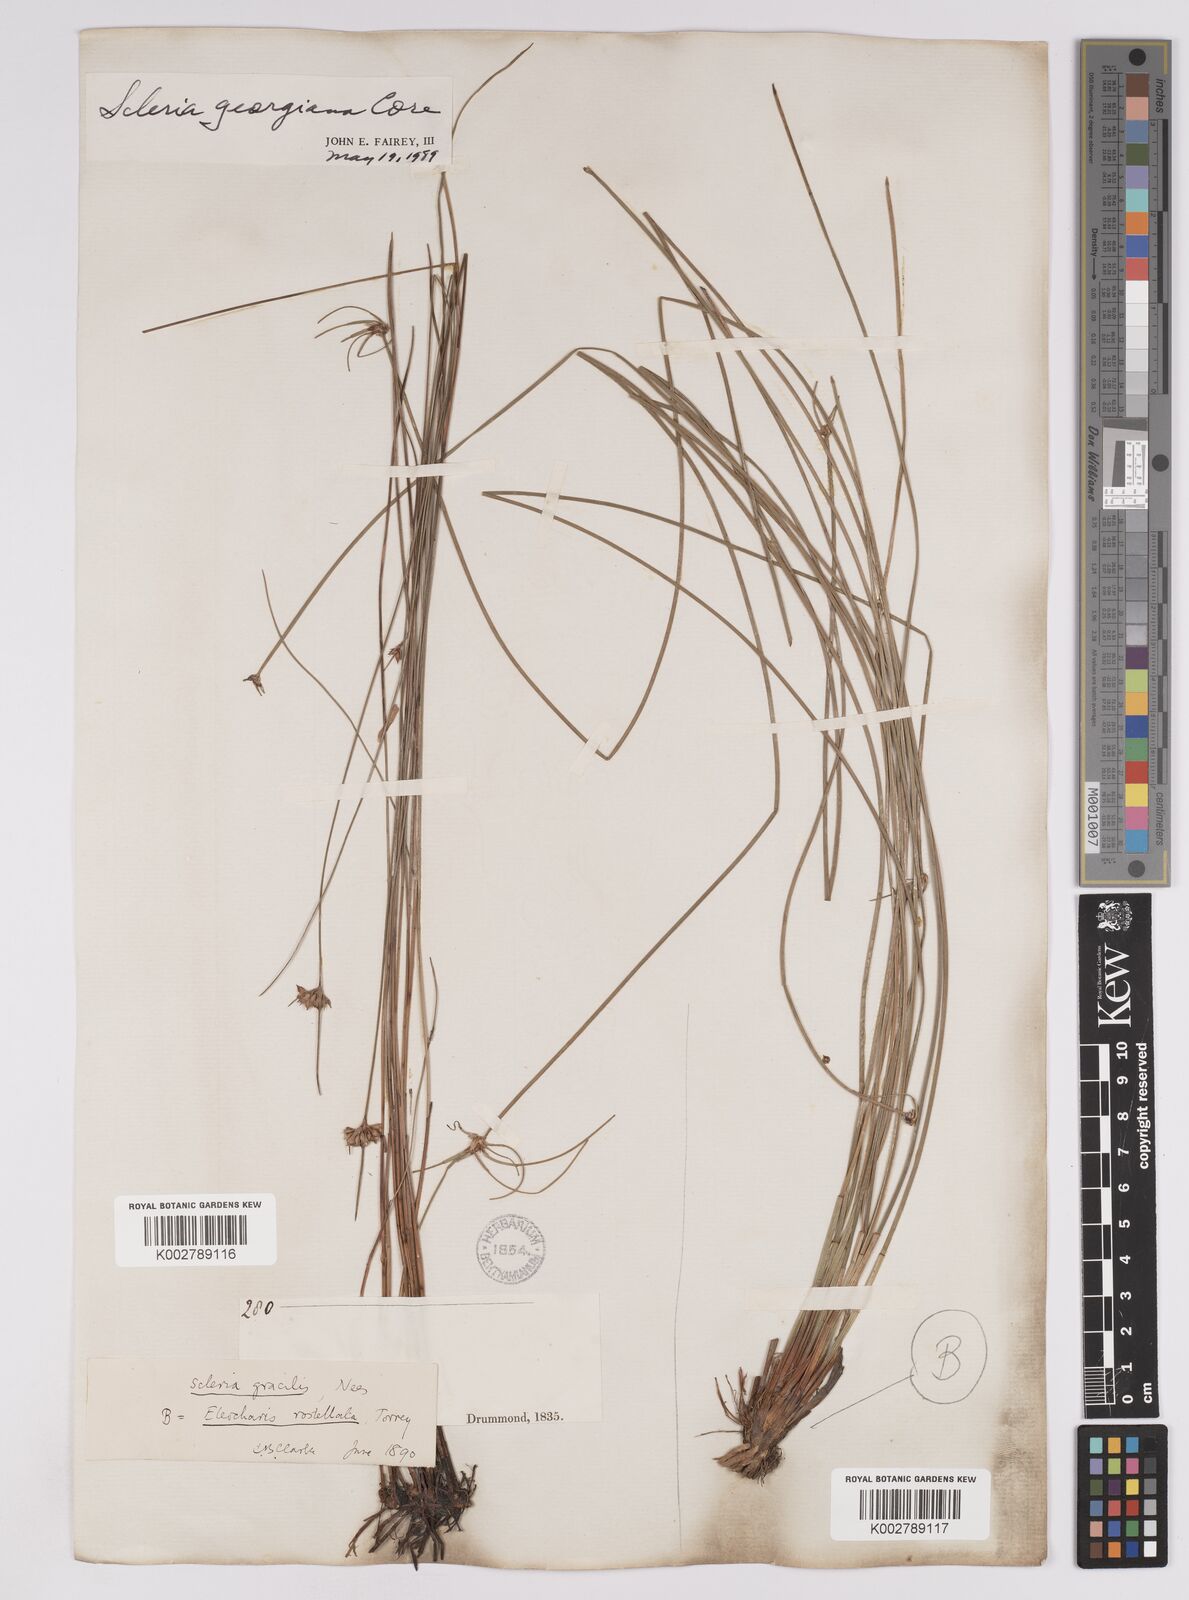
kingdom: Plantae
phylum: Tracheophyta
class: Liliopsida
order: Poales
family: Cyperaceae
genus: Scleria
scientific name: Scleria georgiana
